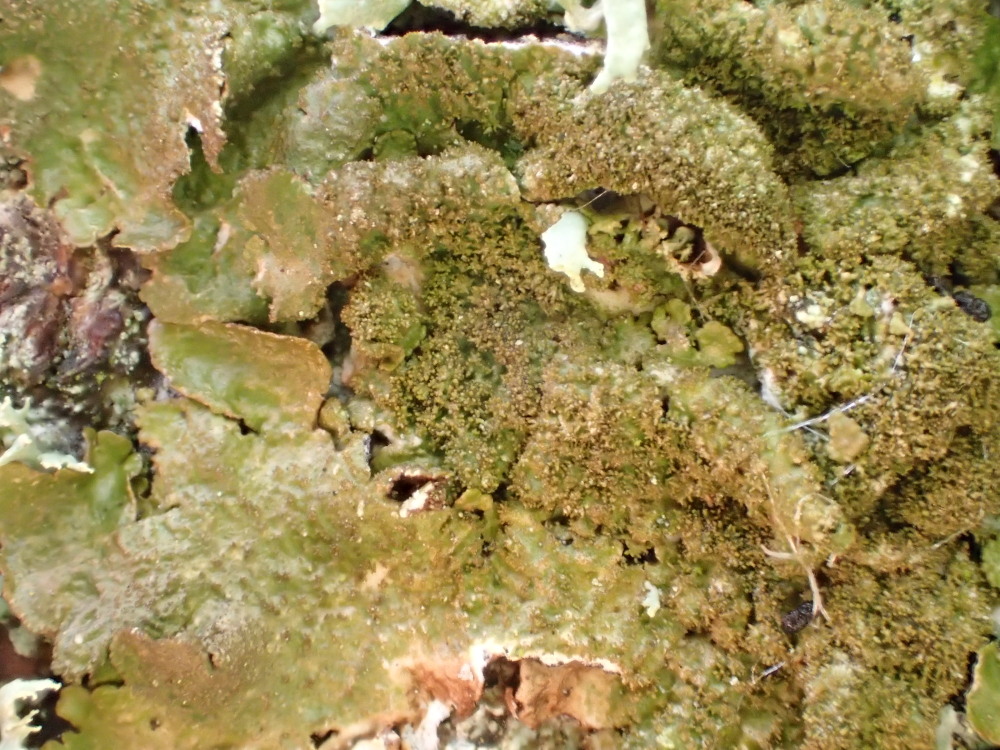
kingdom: Fungi
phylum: Ascomycota
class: Lecanoromycetes
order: Lecanorales
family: Parmeliaceae
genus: Melanelixia
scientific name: Melanelixia subaurifera
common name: guldpudret skållav
